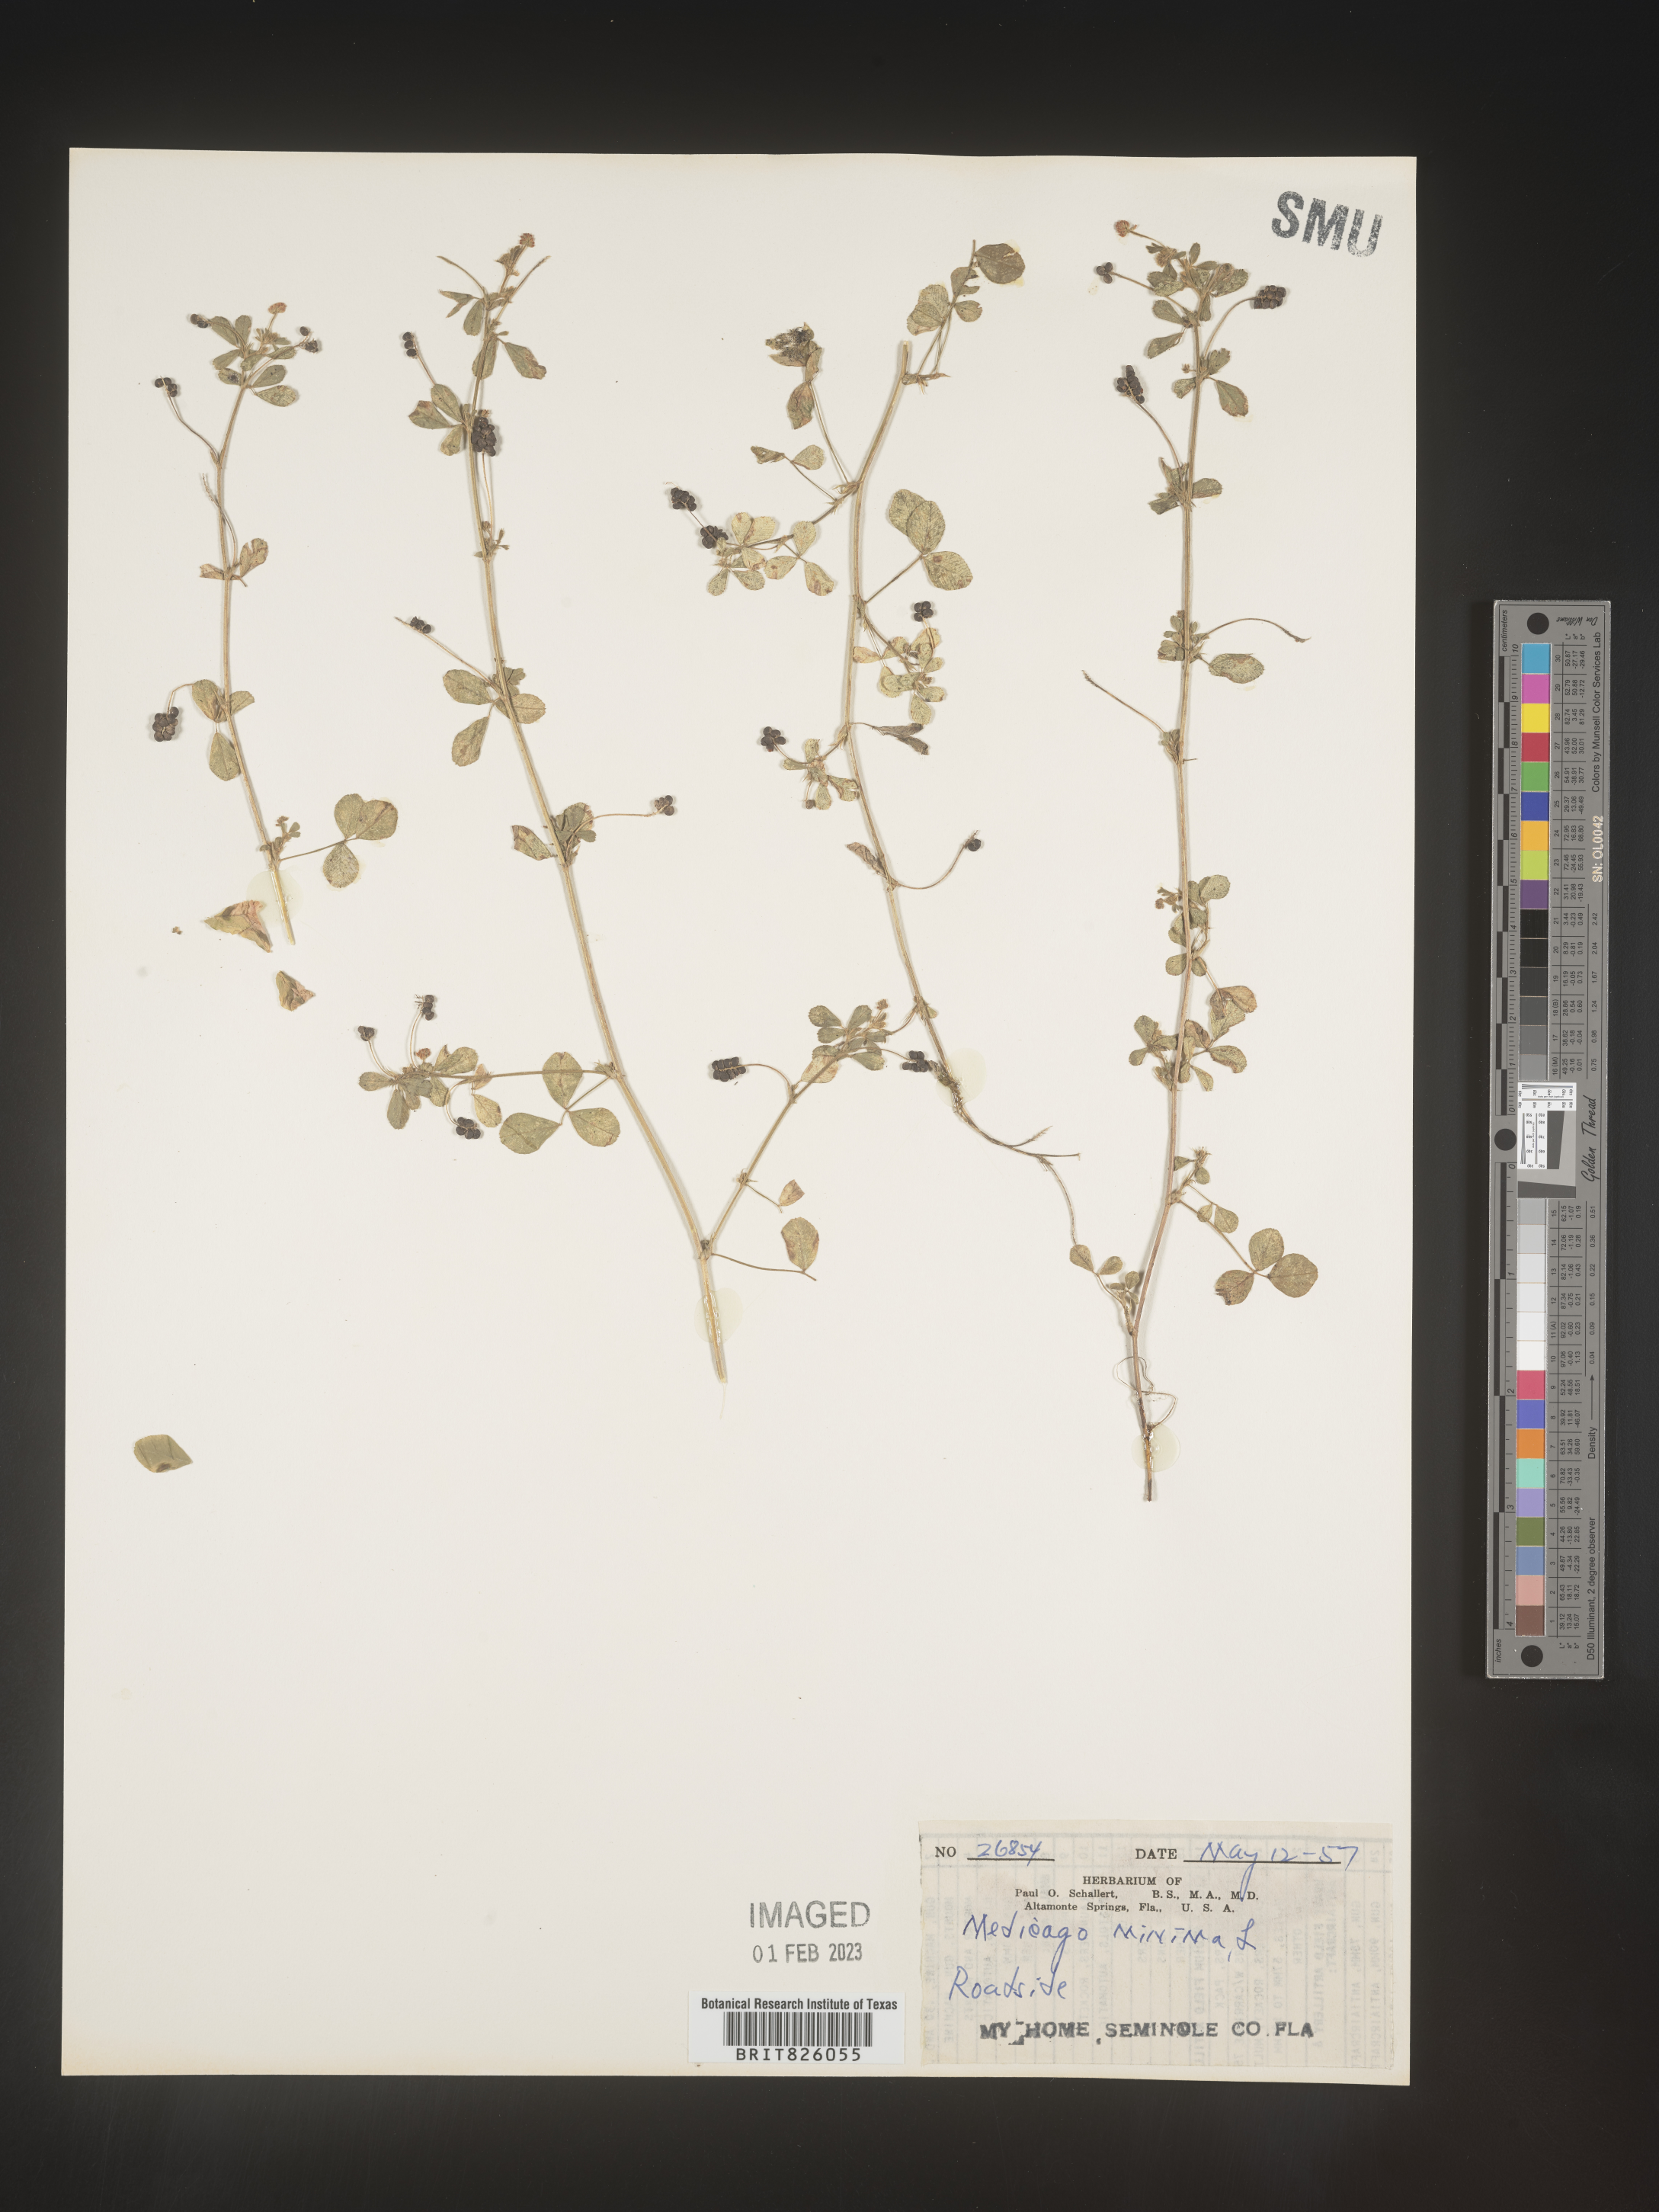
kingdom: Plantae
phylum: Tracheophyta
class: Magnoliopsida
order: Fabales
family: Fabaceae
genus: Medicago
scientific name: Medicago lupulina
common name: Black medick
